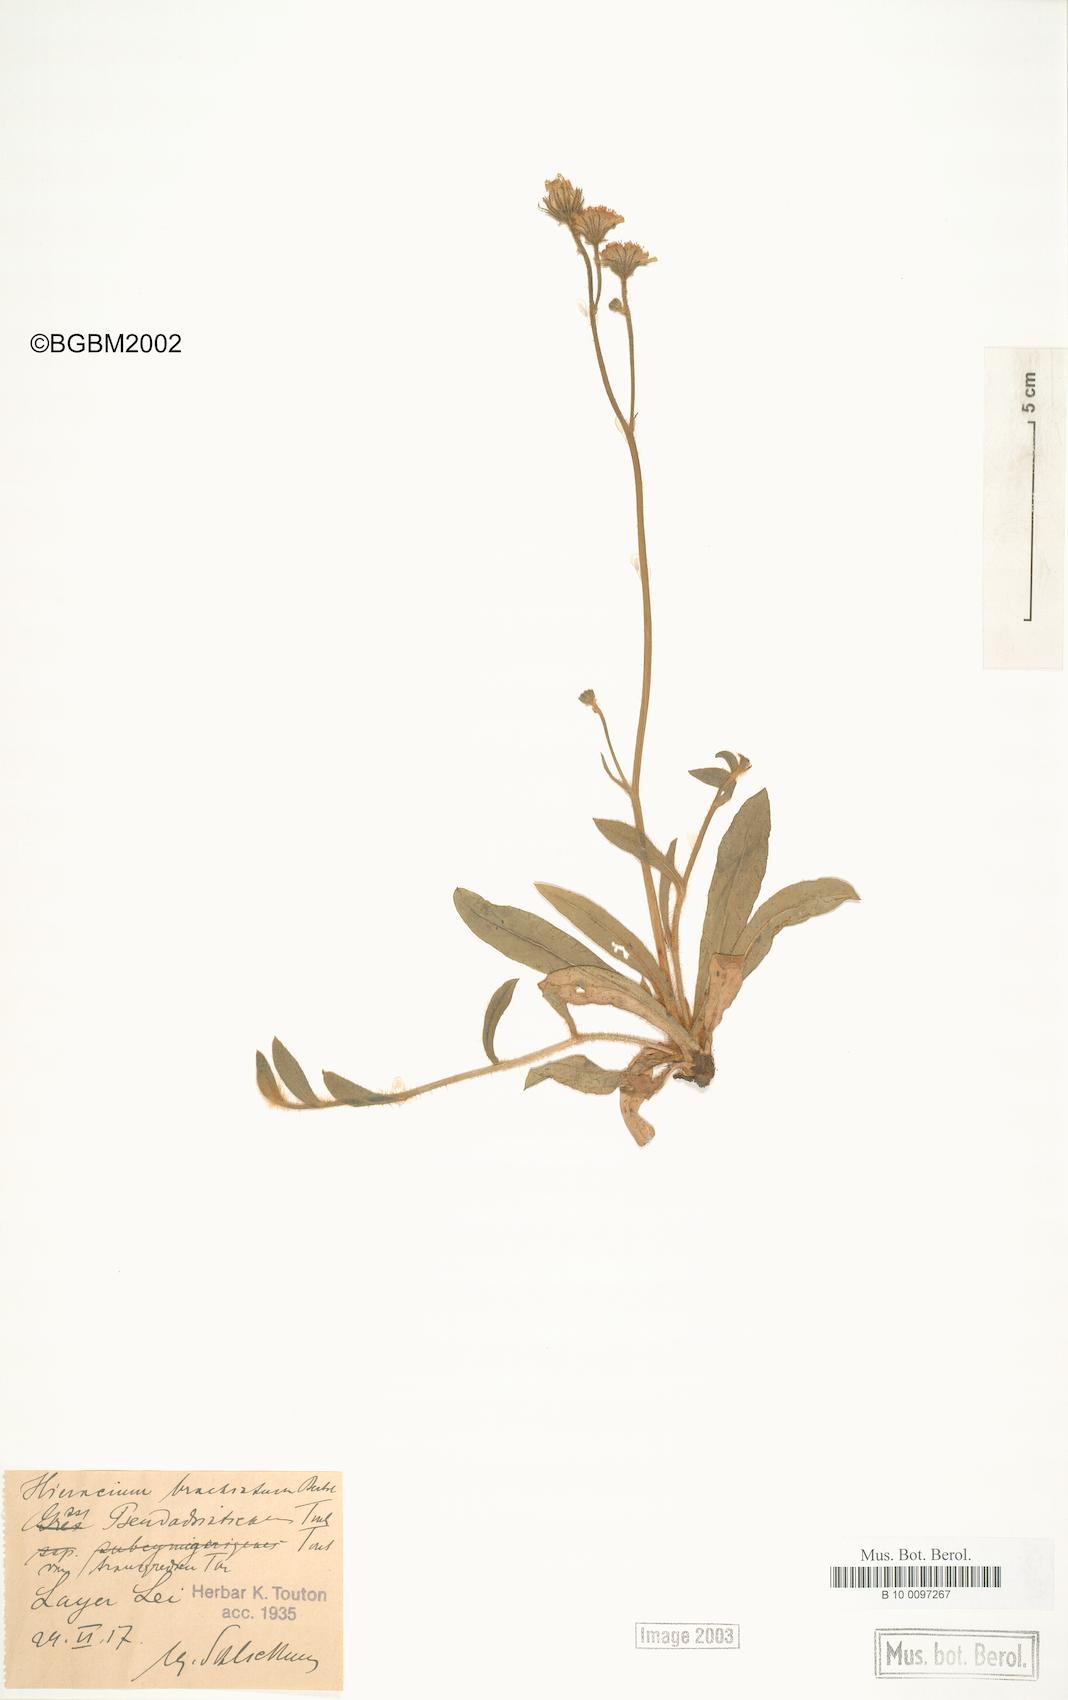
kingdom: Plantae
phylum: Tracheophyta
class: Magnoliopsida
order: Asterales
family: Asteraceae
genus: Pilosella
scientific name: Pilosella acutifolia
